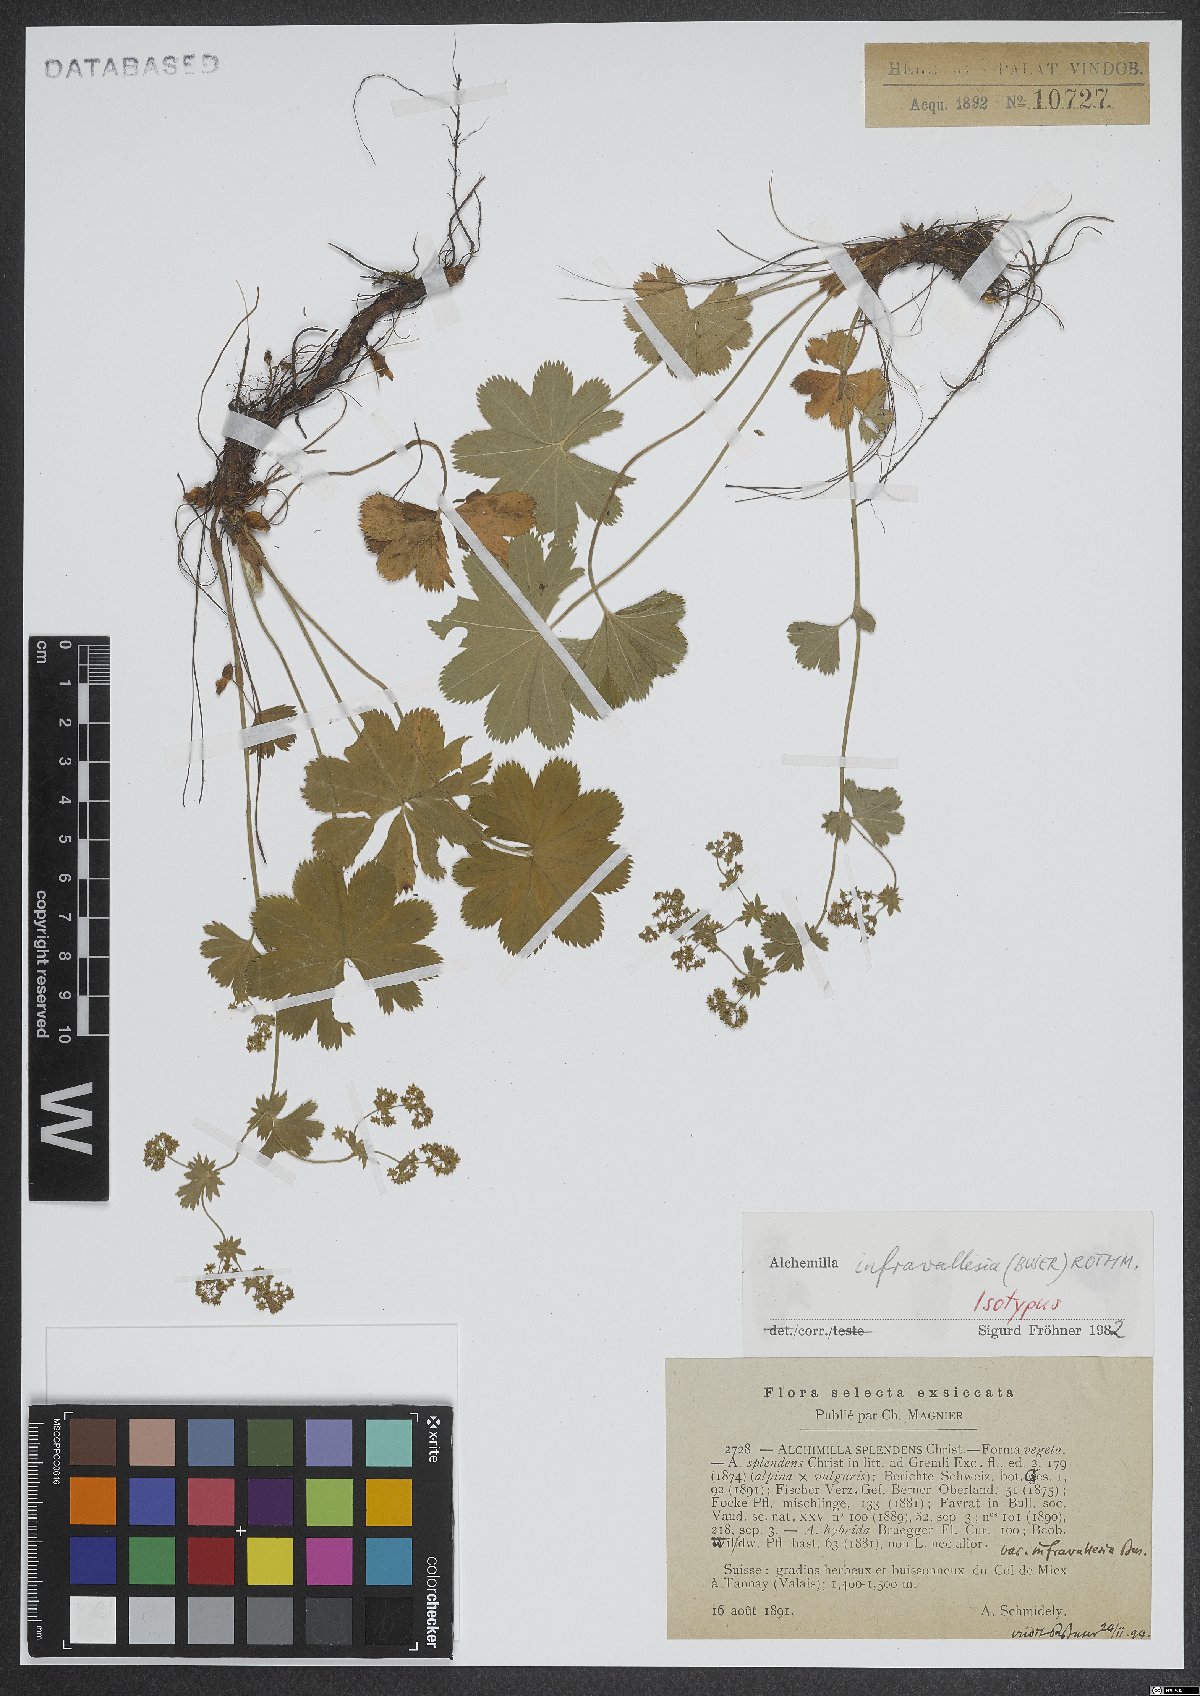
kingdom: Plantae
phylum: Tracheophyta
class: Magnoliopsida
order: Rosales
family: Rosaceae
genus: Alchemilla
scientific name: Alchemilla infravallesia
